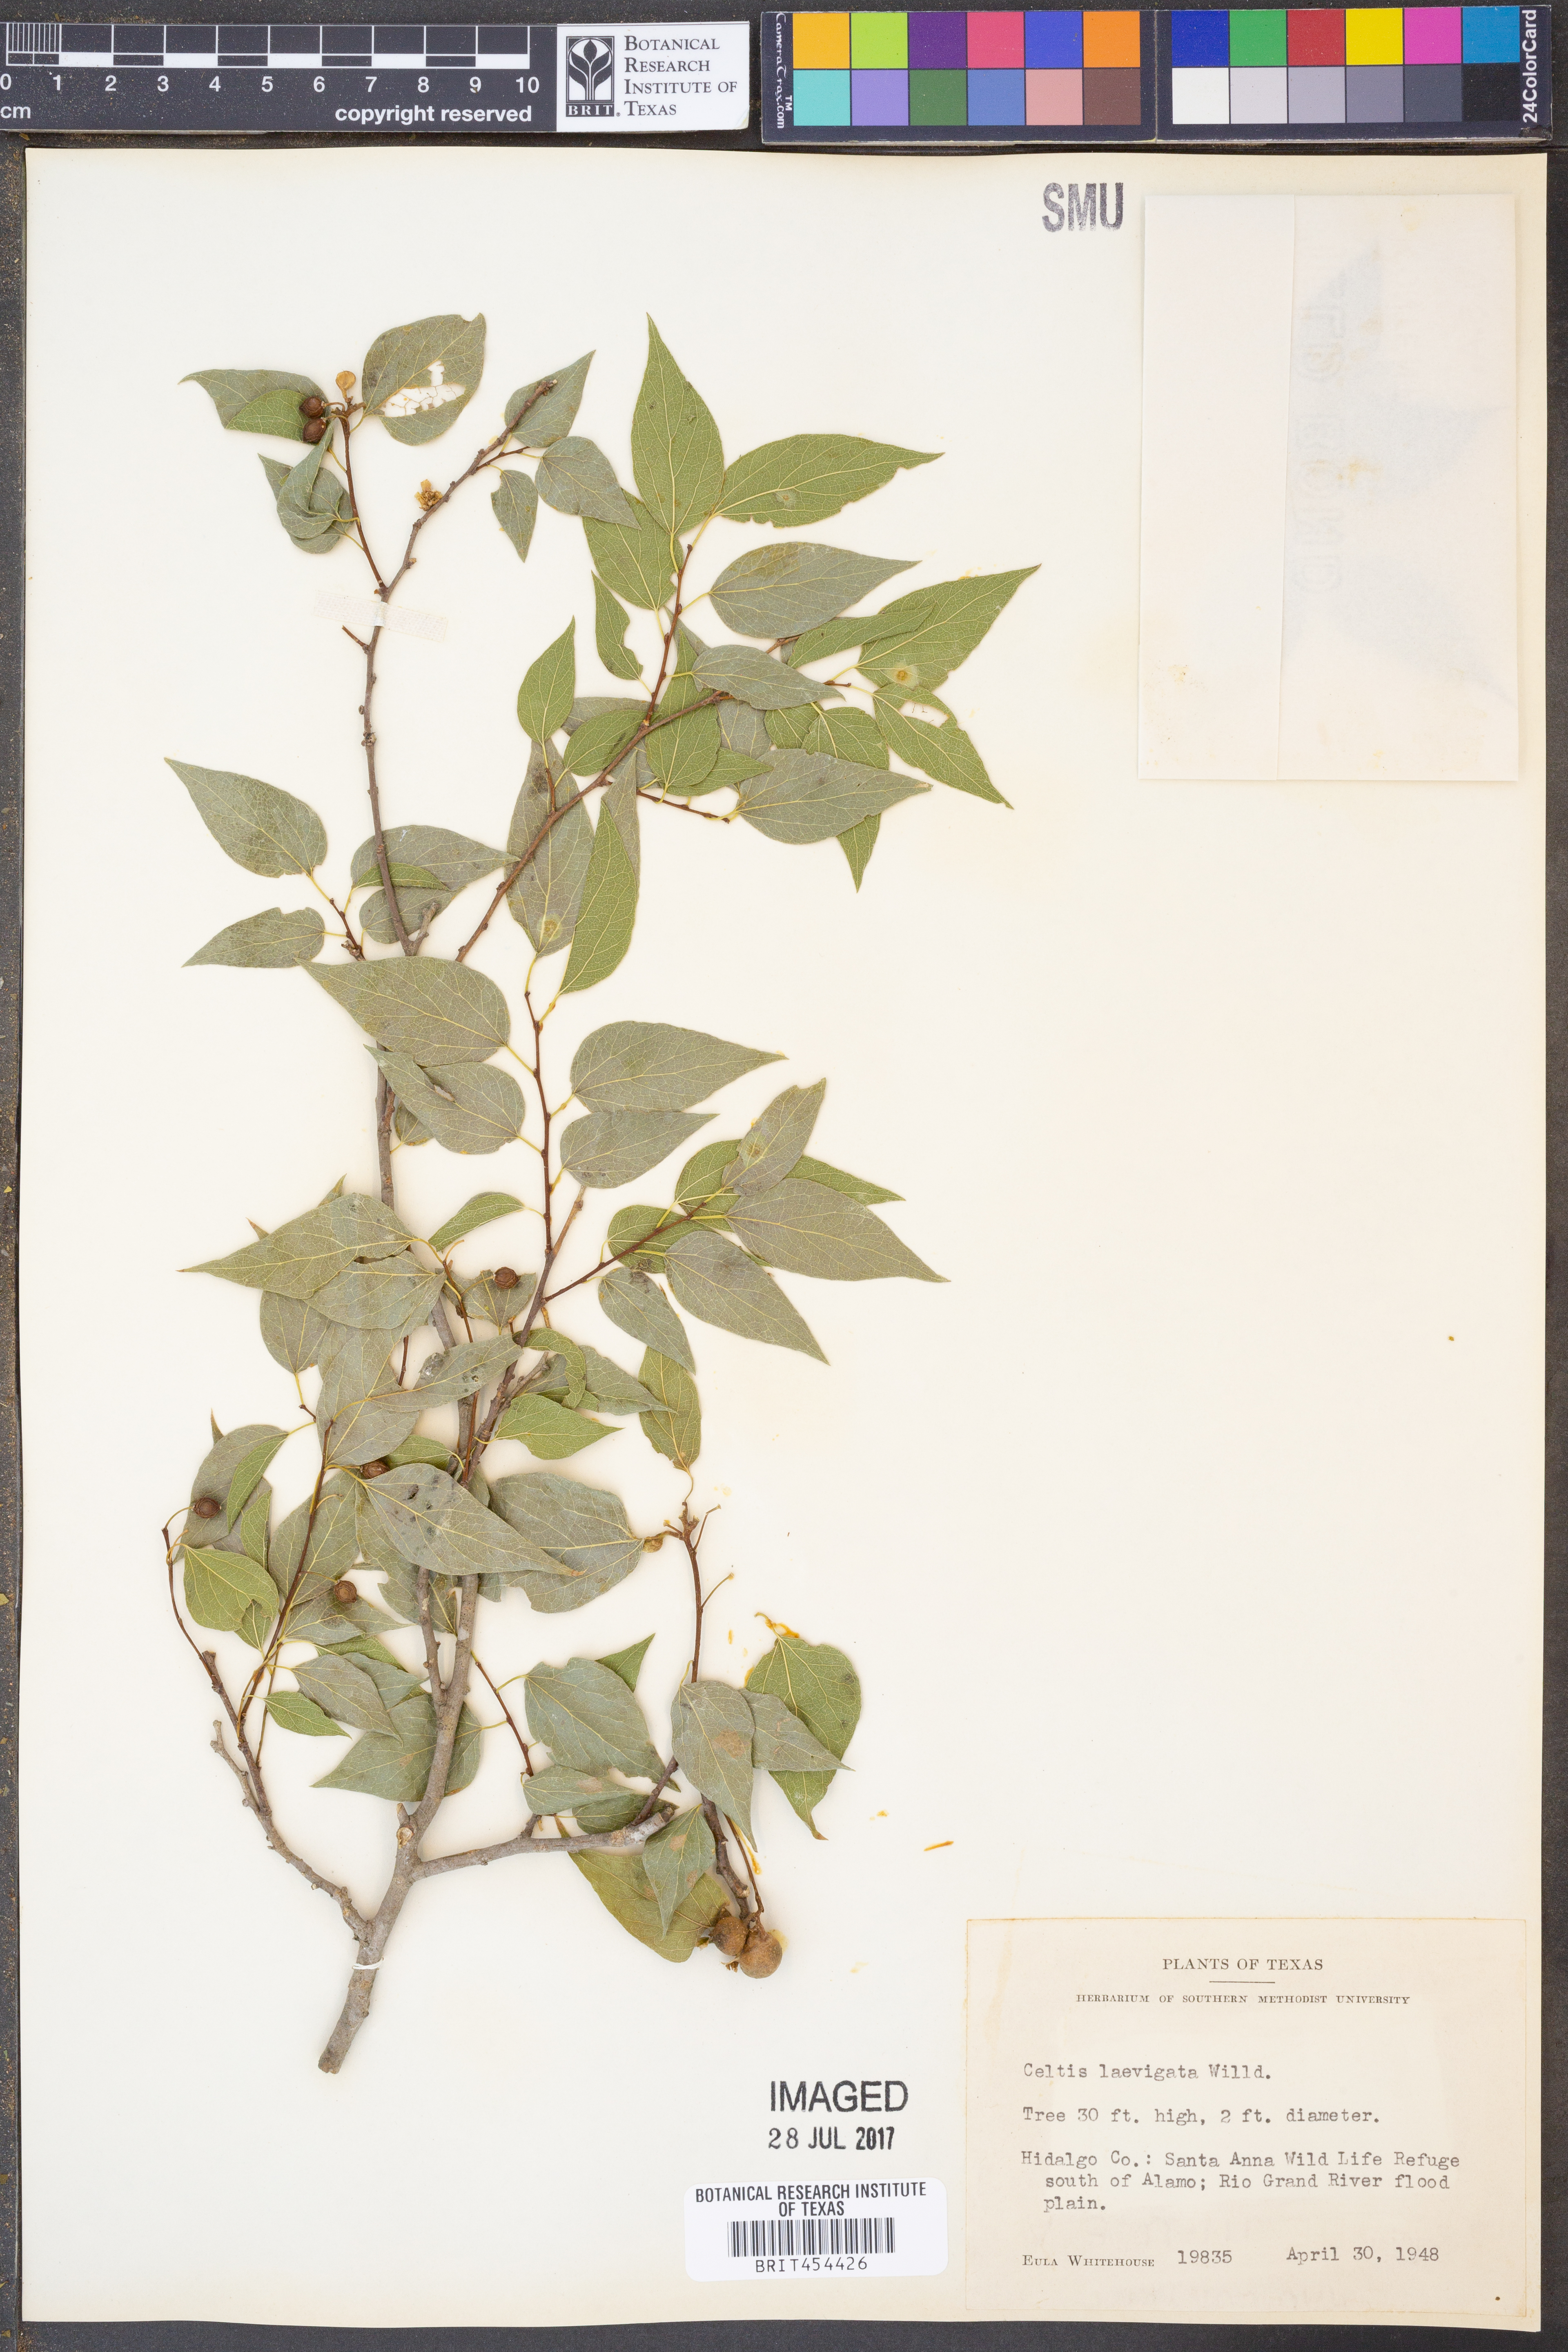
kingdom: Plantae
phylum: Tracheophyta
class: Magnoliopsida
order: Rosales
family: Cannabaceae
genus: Celtis
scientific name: Celtis laevigata
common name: Sugarberry
